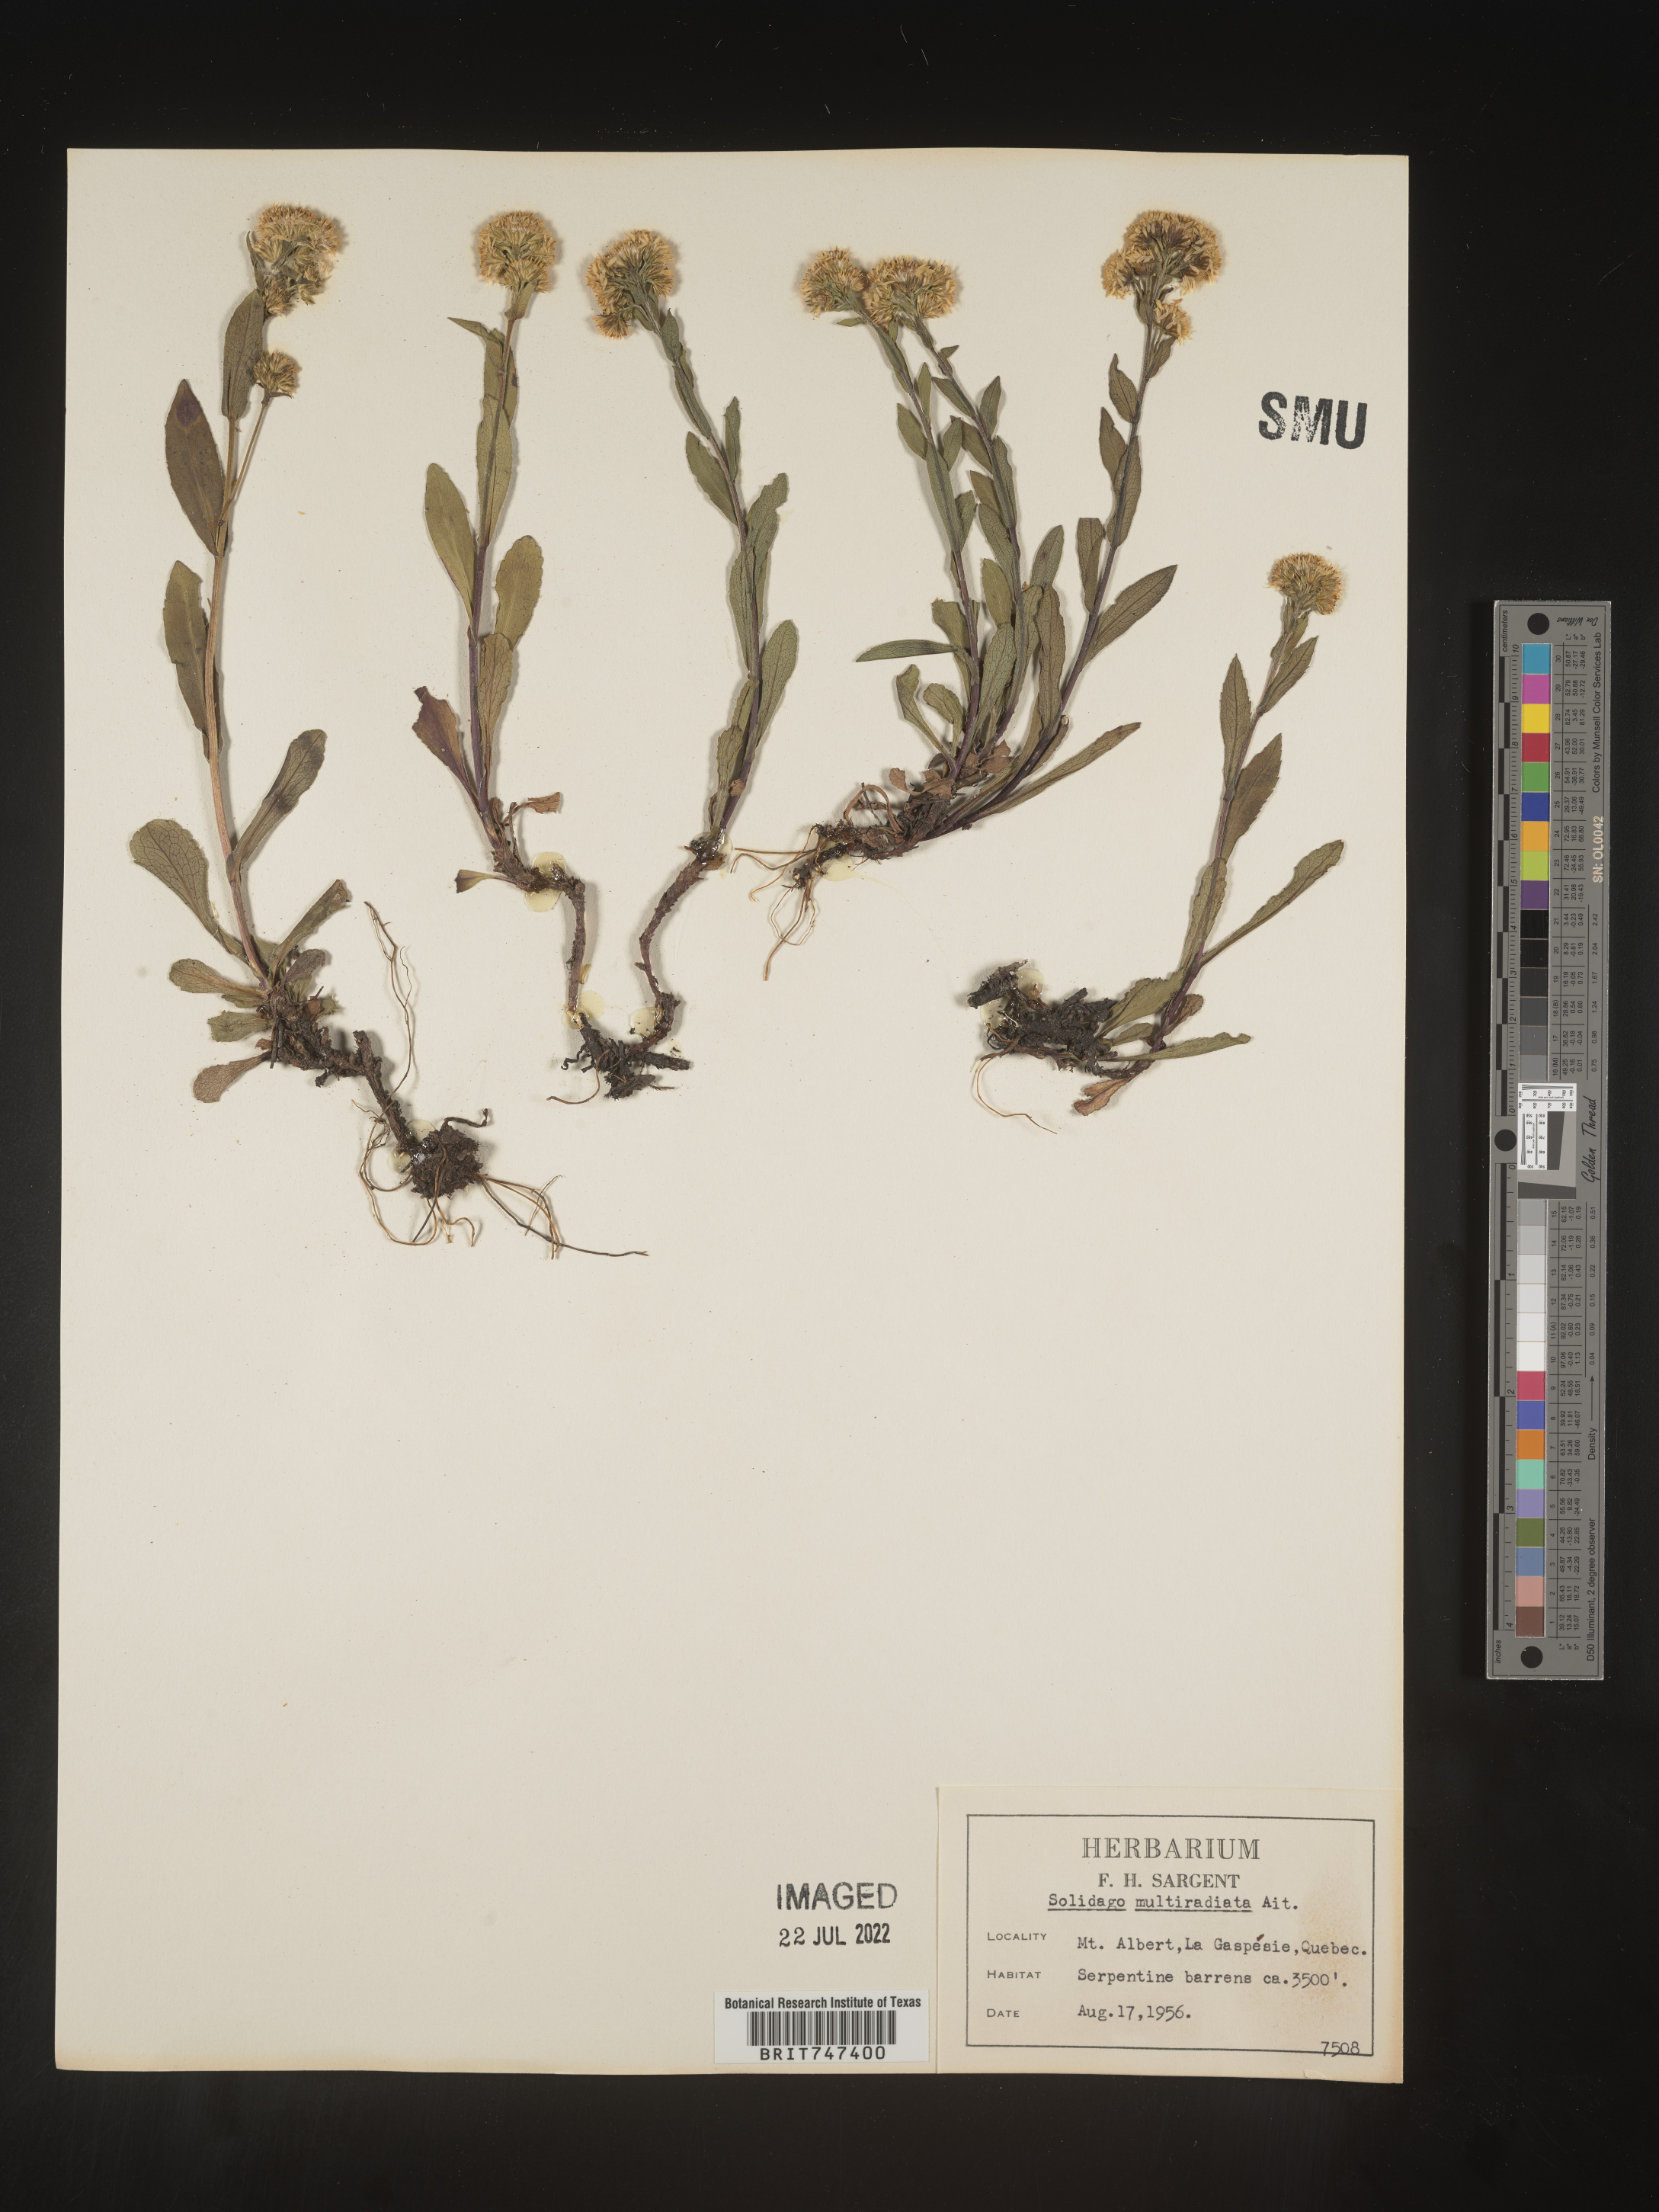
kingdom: Plantae
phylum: Tracheophyta
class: Magnoliopsida
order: Asterales
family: Asteraceae
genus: Solidago
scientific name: Solidago multiradiata
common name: Northern goldenrod
